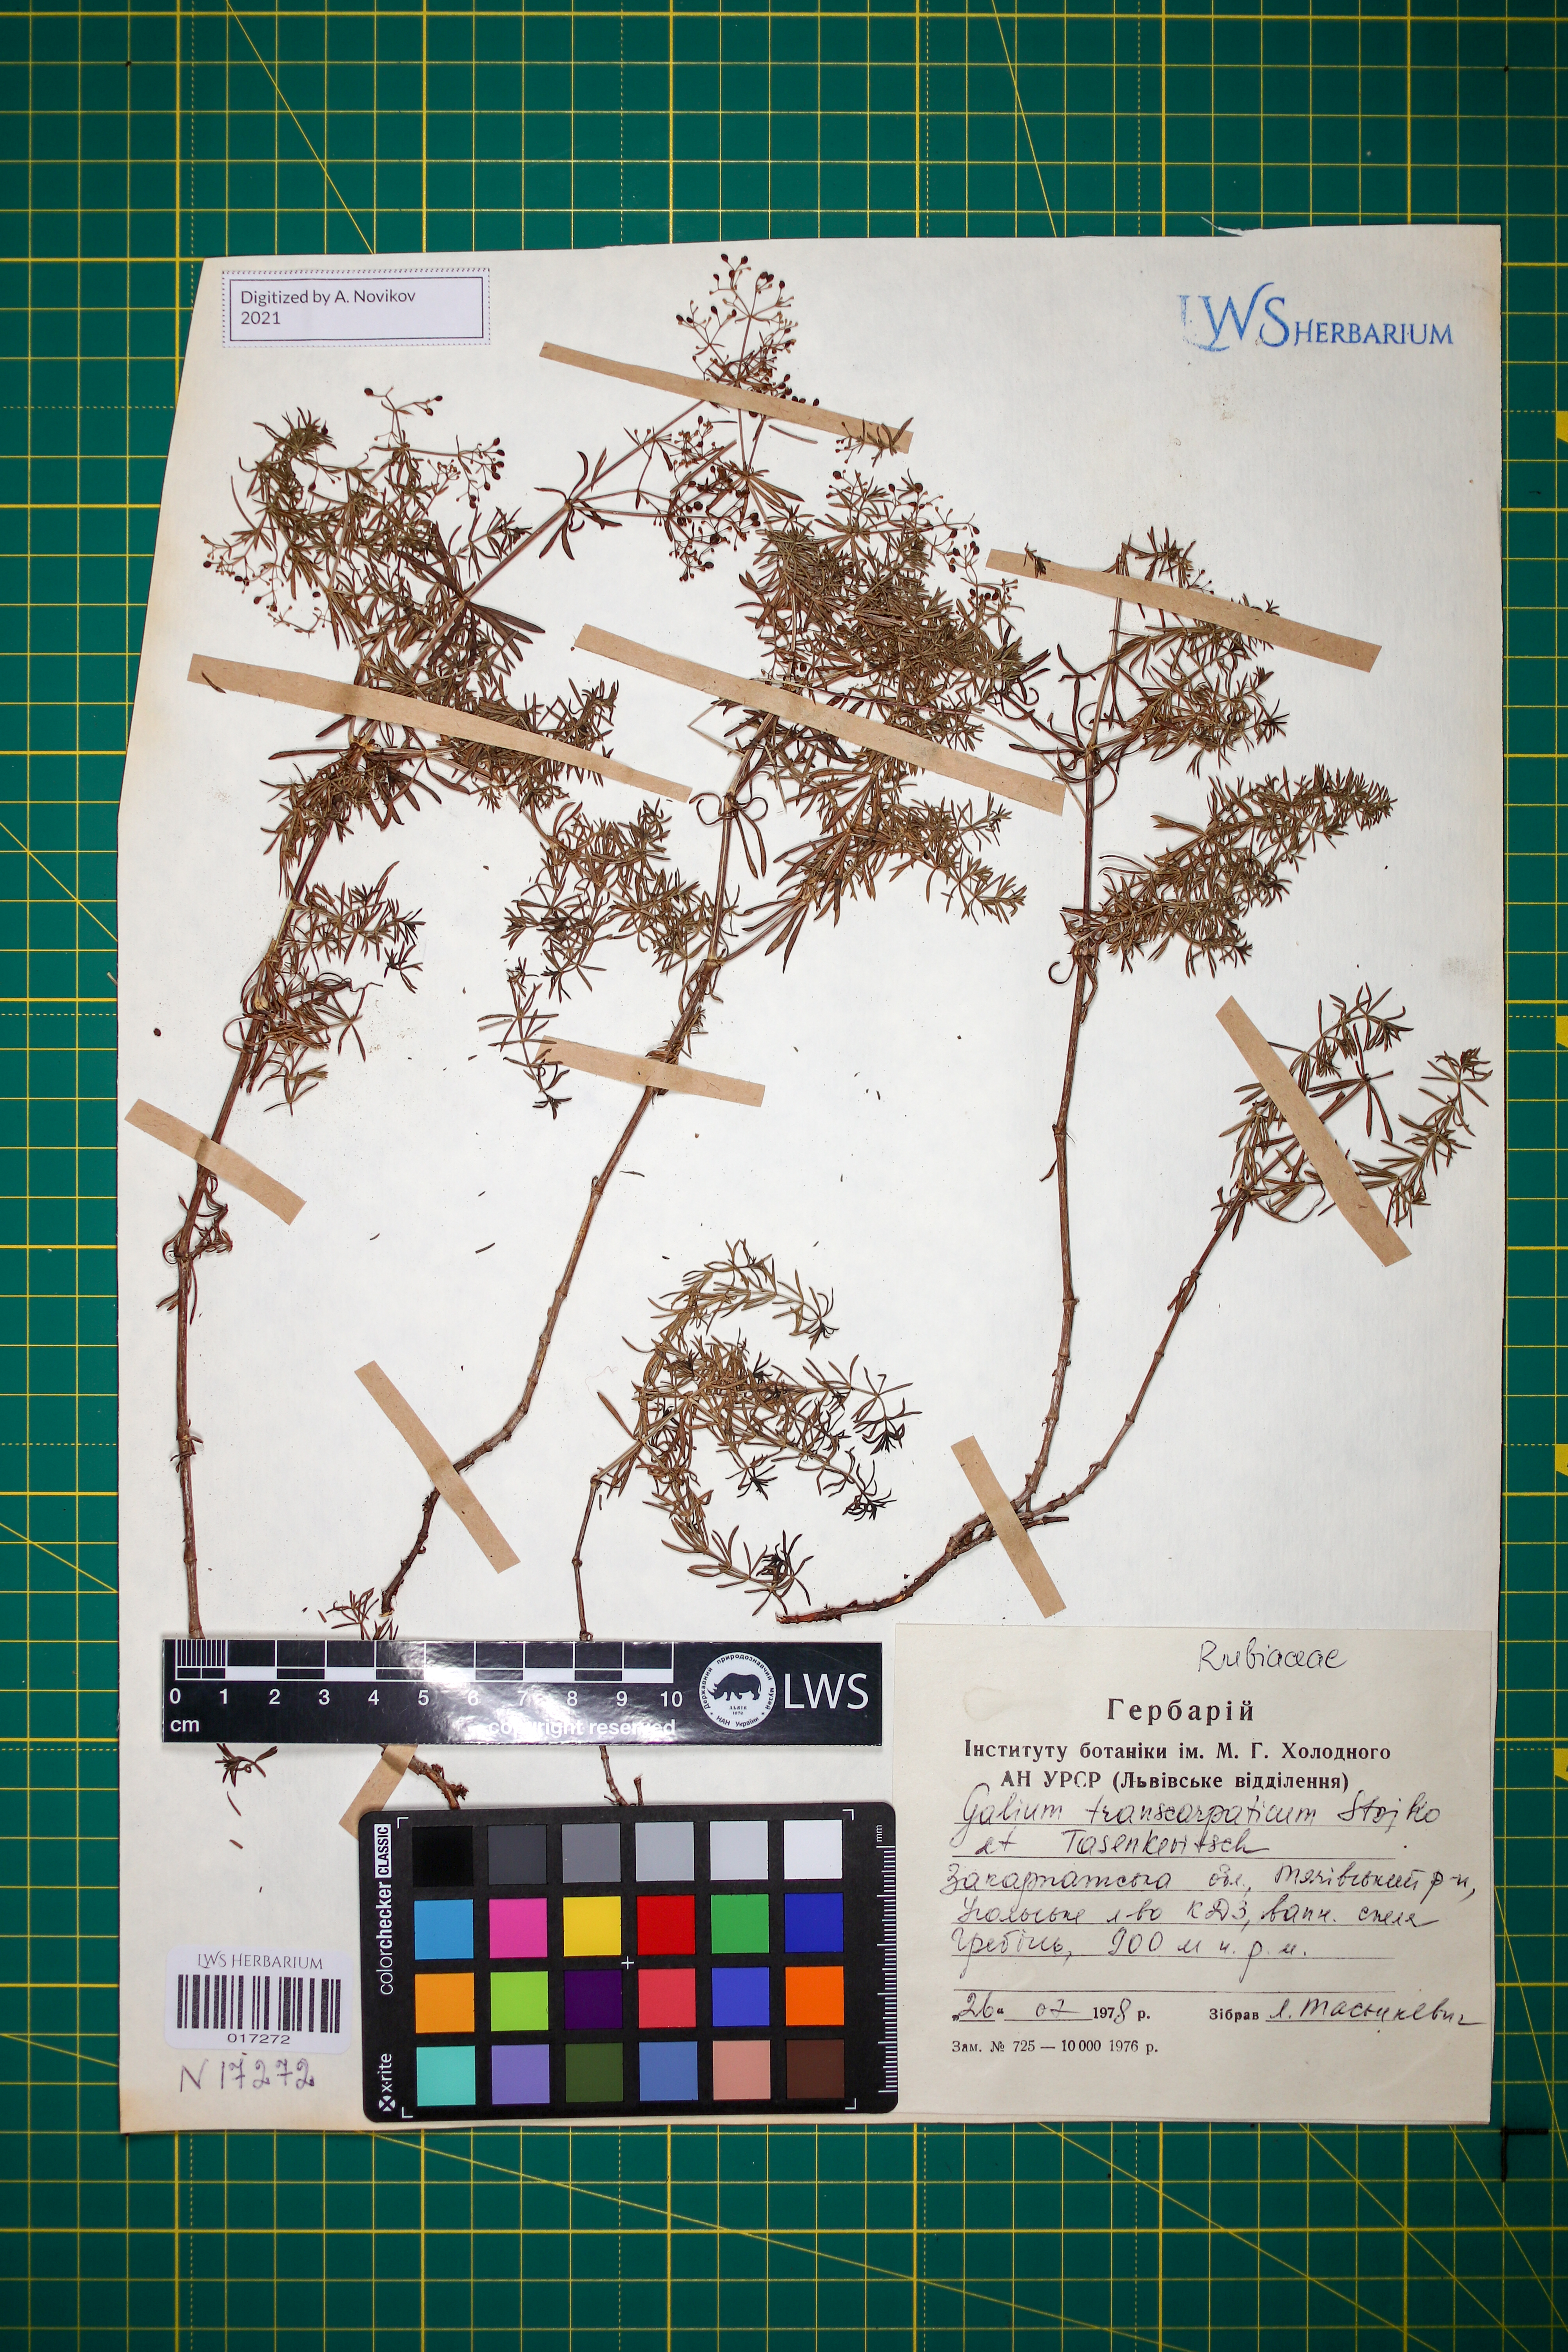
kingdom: Plantae
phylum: Tracheophyta
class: Magnoliopsida
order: Gentianales
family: Rubiaceae
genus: Galium
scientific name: Galium transcarpaticum
